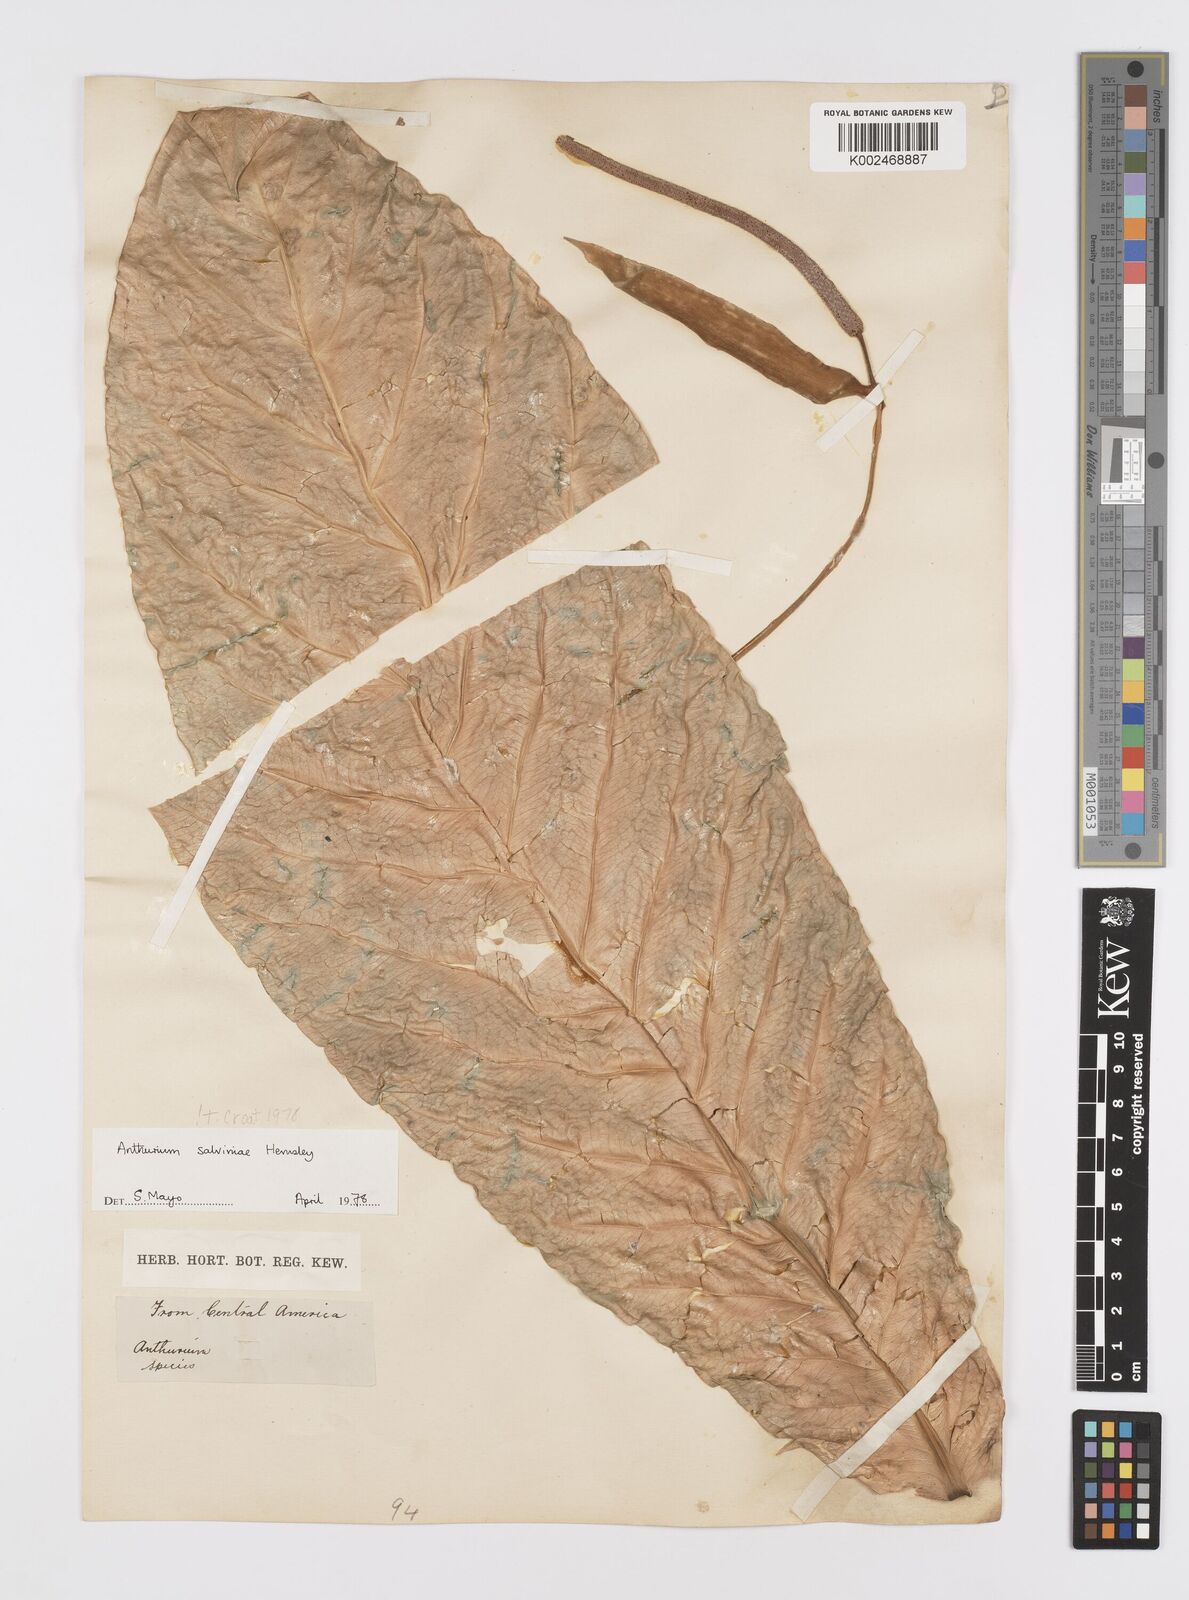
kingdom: Plantae
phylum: Tracheophyta
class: Liliopsida
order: Alismatales
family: Araceae
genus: Anthurium
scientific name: Anthurium salvinii
